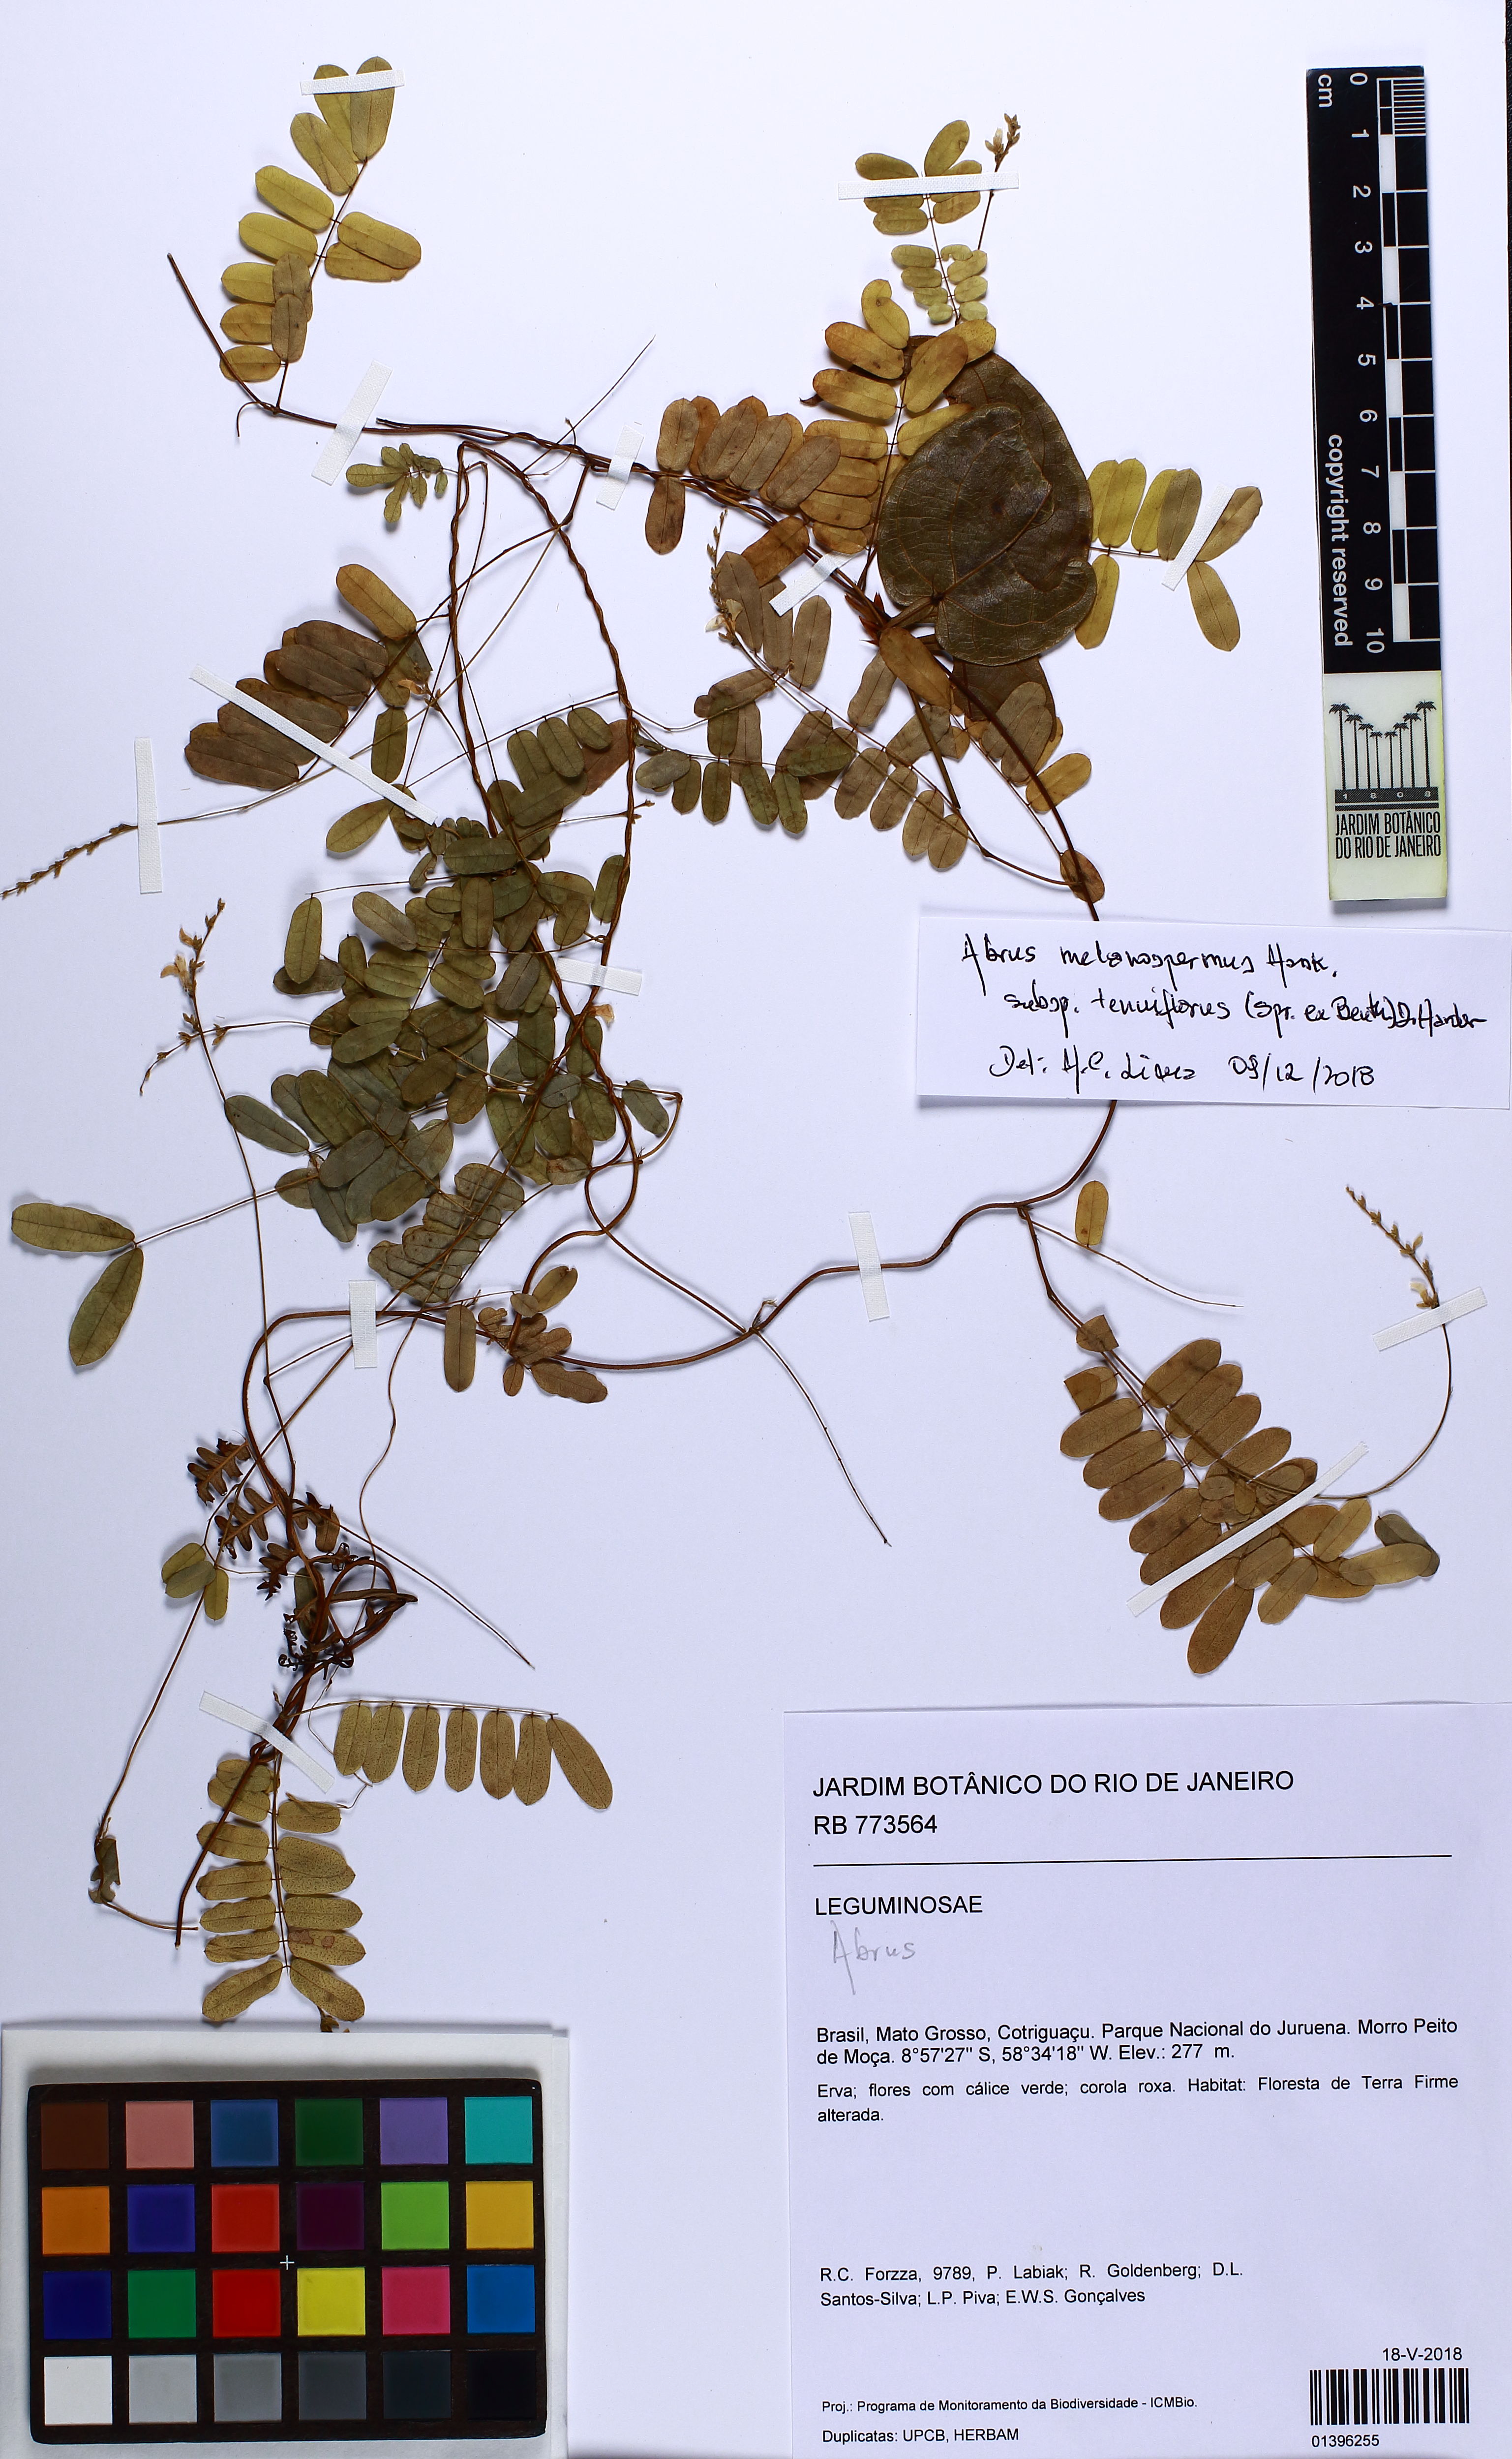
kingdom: Plantae
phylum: Tracheophyta
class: Magnoliopsida
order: Fabales
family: Fabaceae
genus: Abrus
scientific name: Abrus melanospermus
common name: Licorice-root
